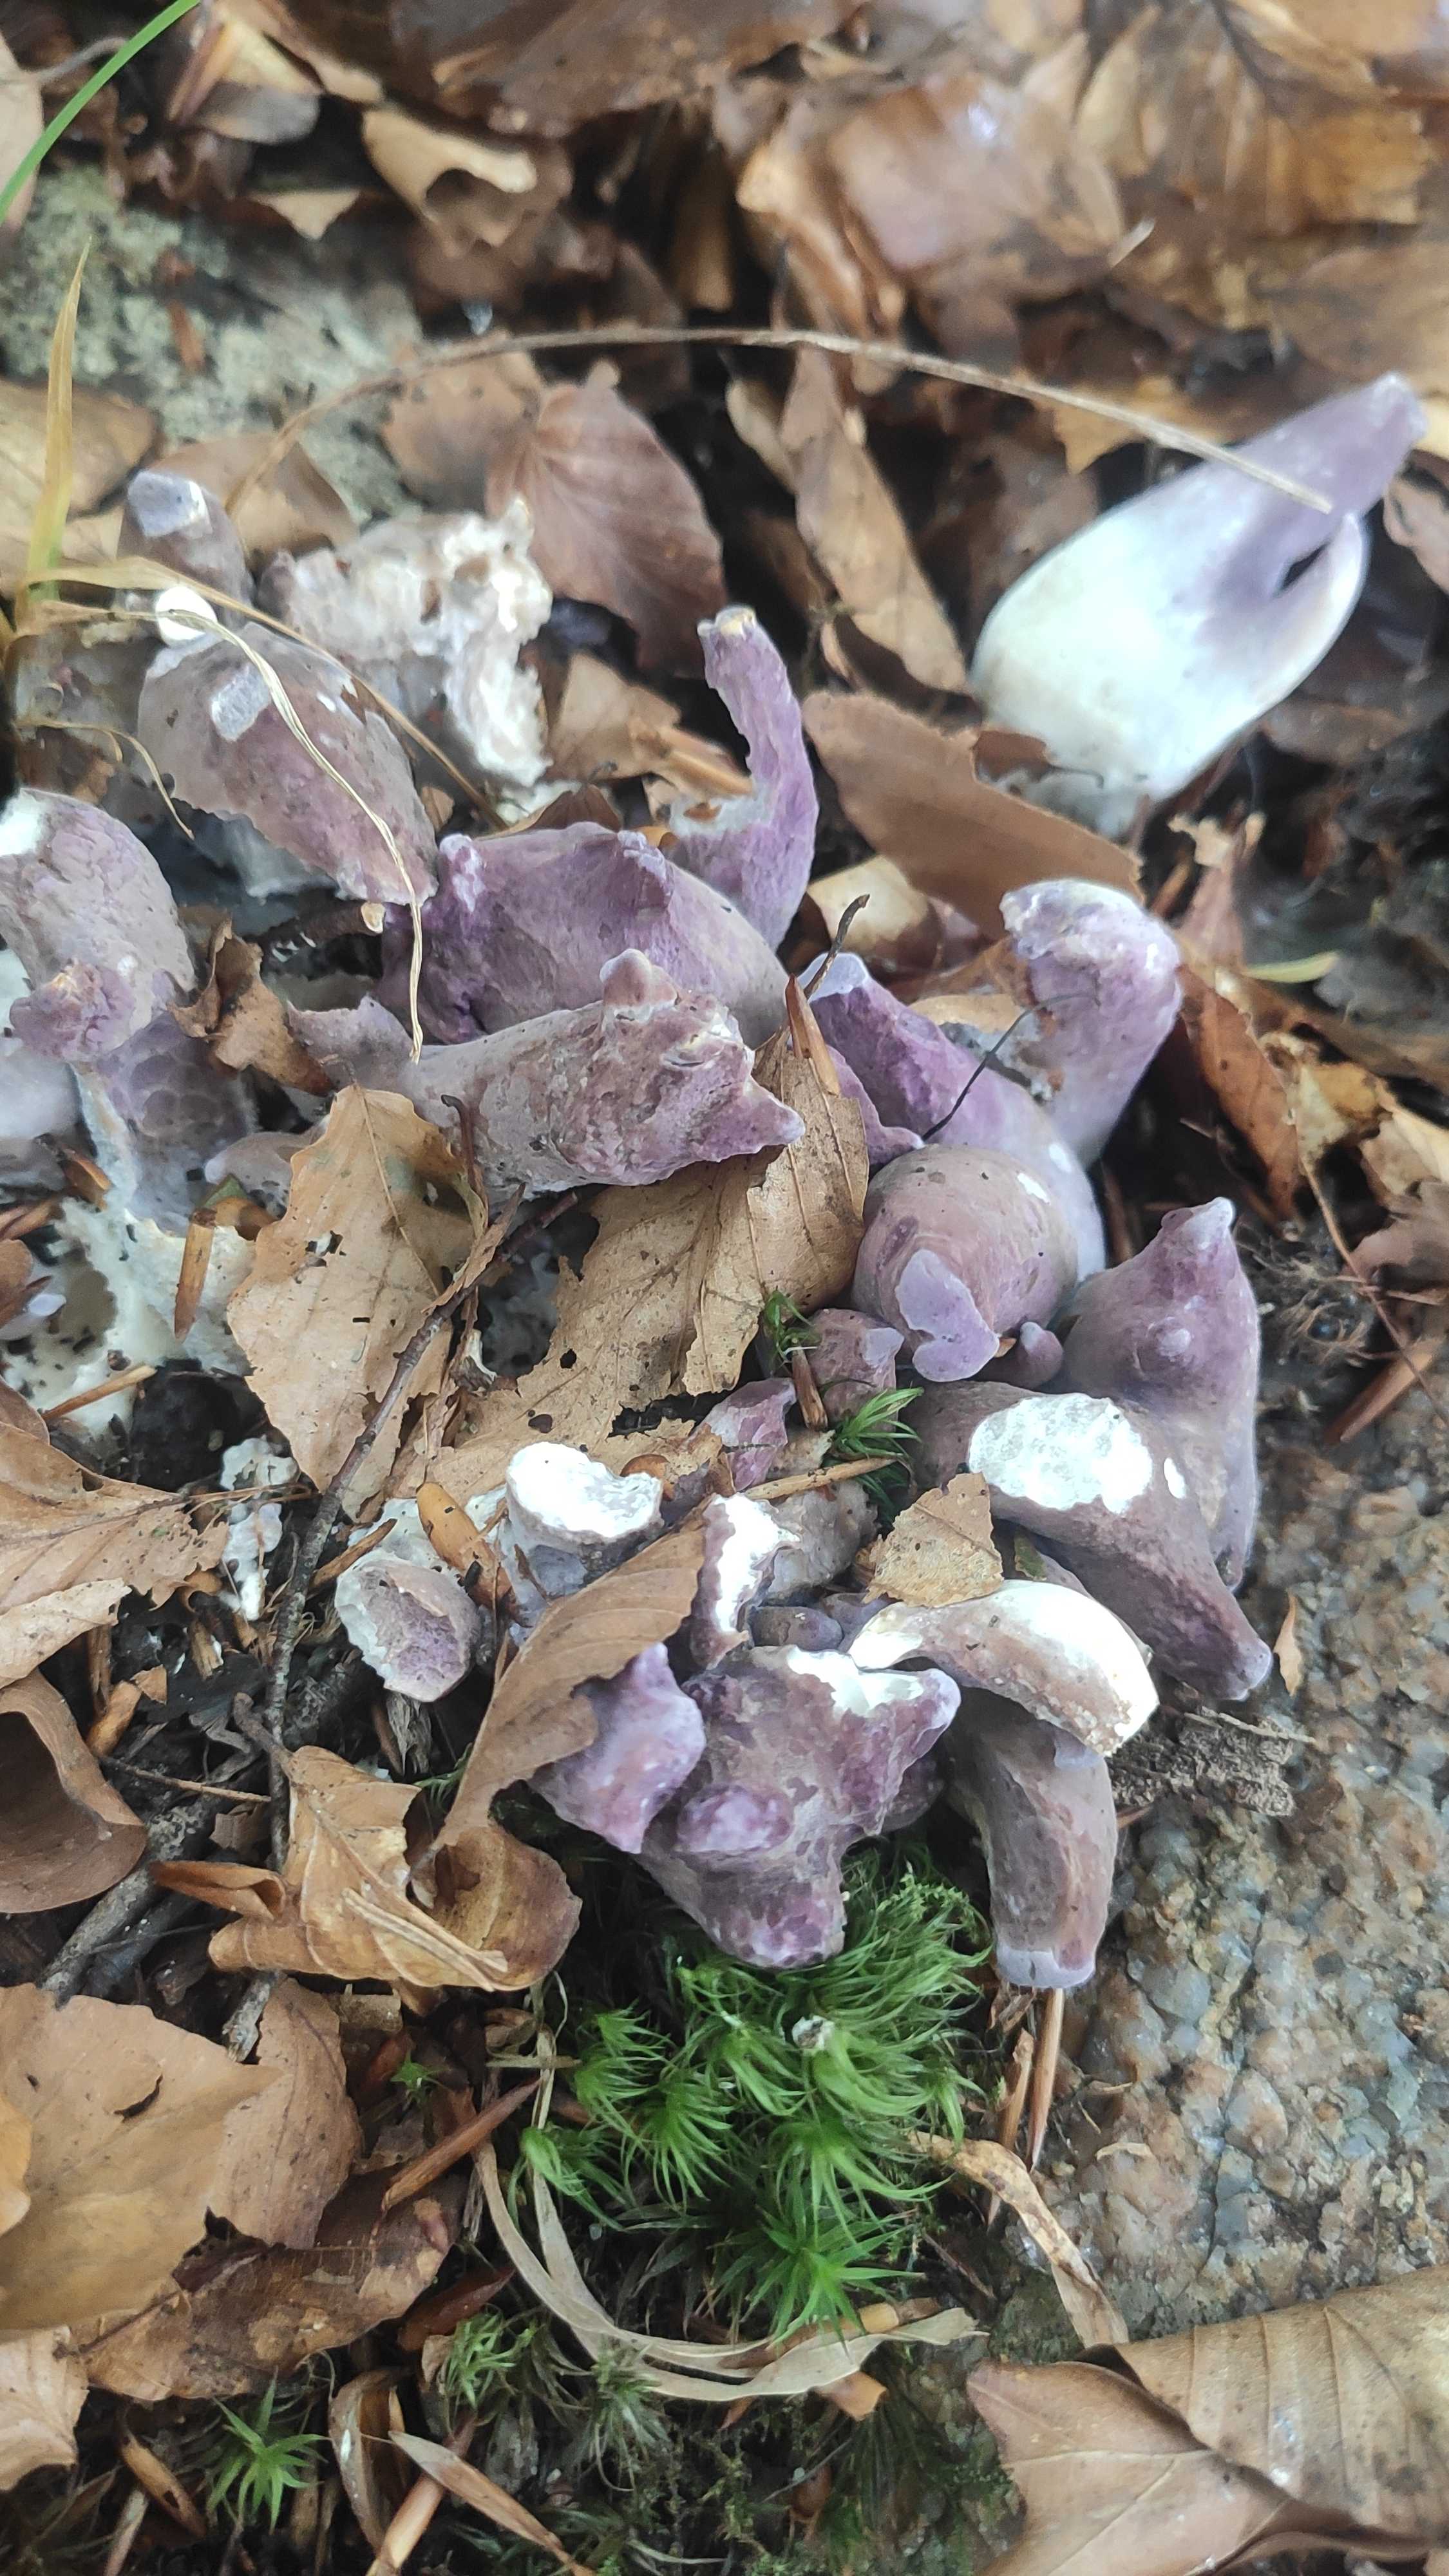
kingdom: Fungi
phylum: Basidiomycota
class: Agaricomycetes
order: Gomphales
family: Gomphaceae
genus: Gomphus
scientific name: Gomphus clavatus
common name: køllekantarel
